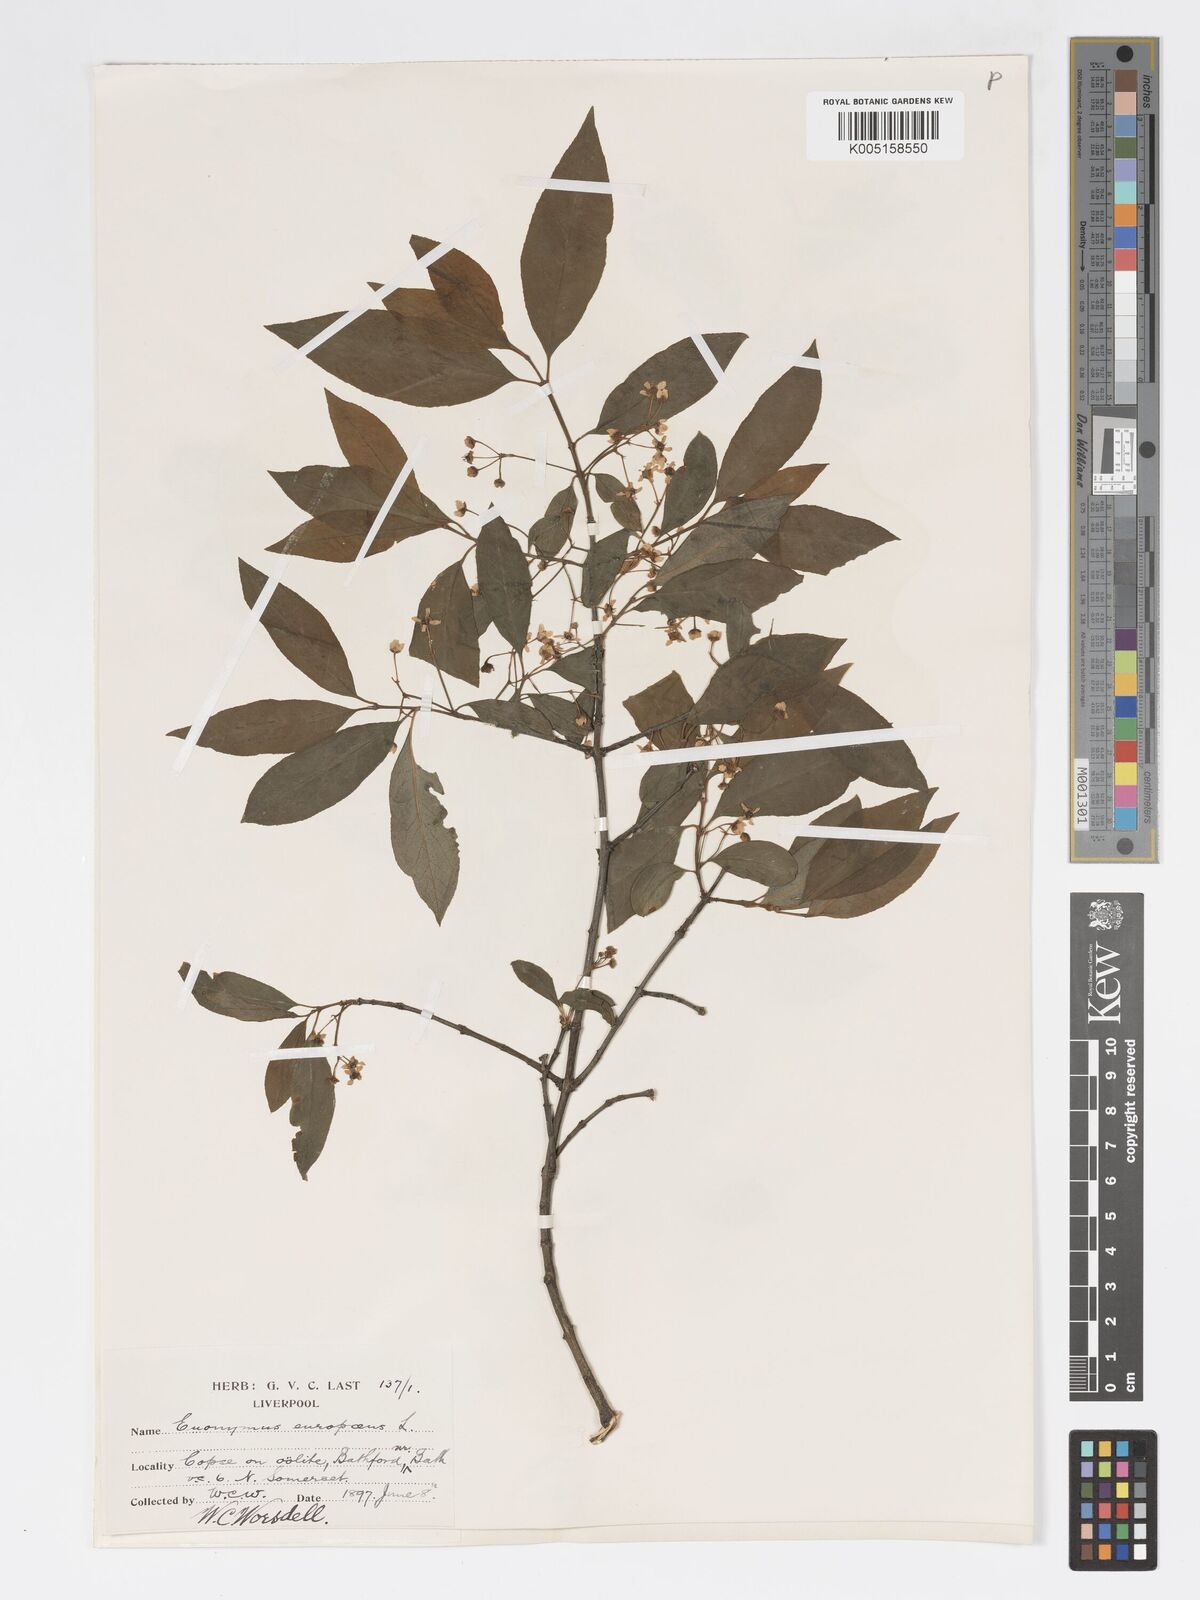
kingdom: Plantae
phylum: Tracheophyta
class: Magnoliopsida
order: Celastrales
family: Celastraceae
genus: Euonymus
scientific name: Euonymus europaeus
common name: Spindle
